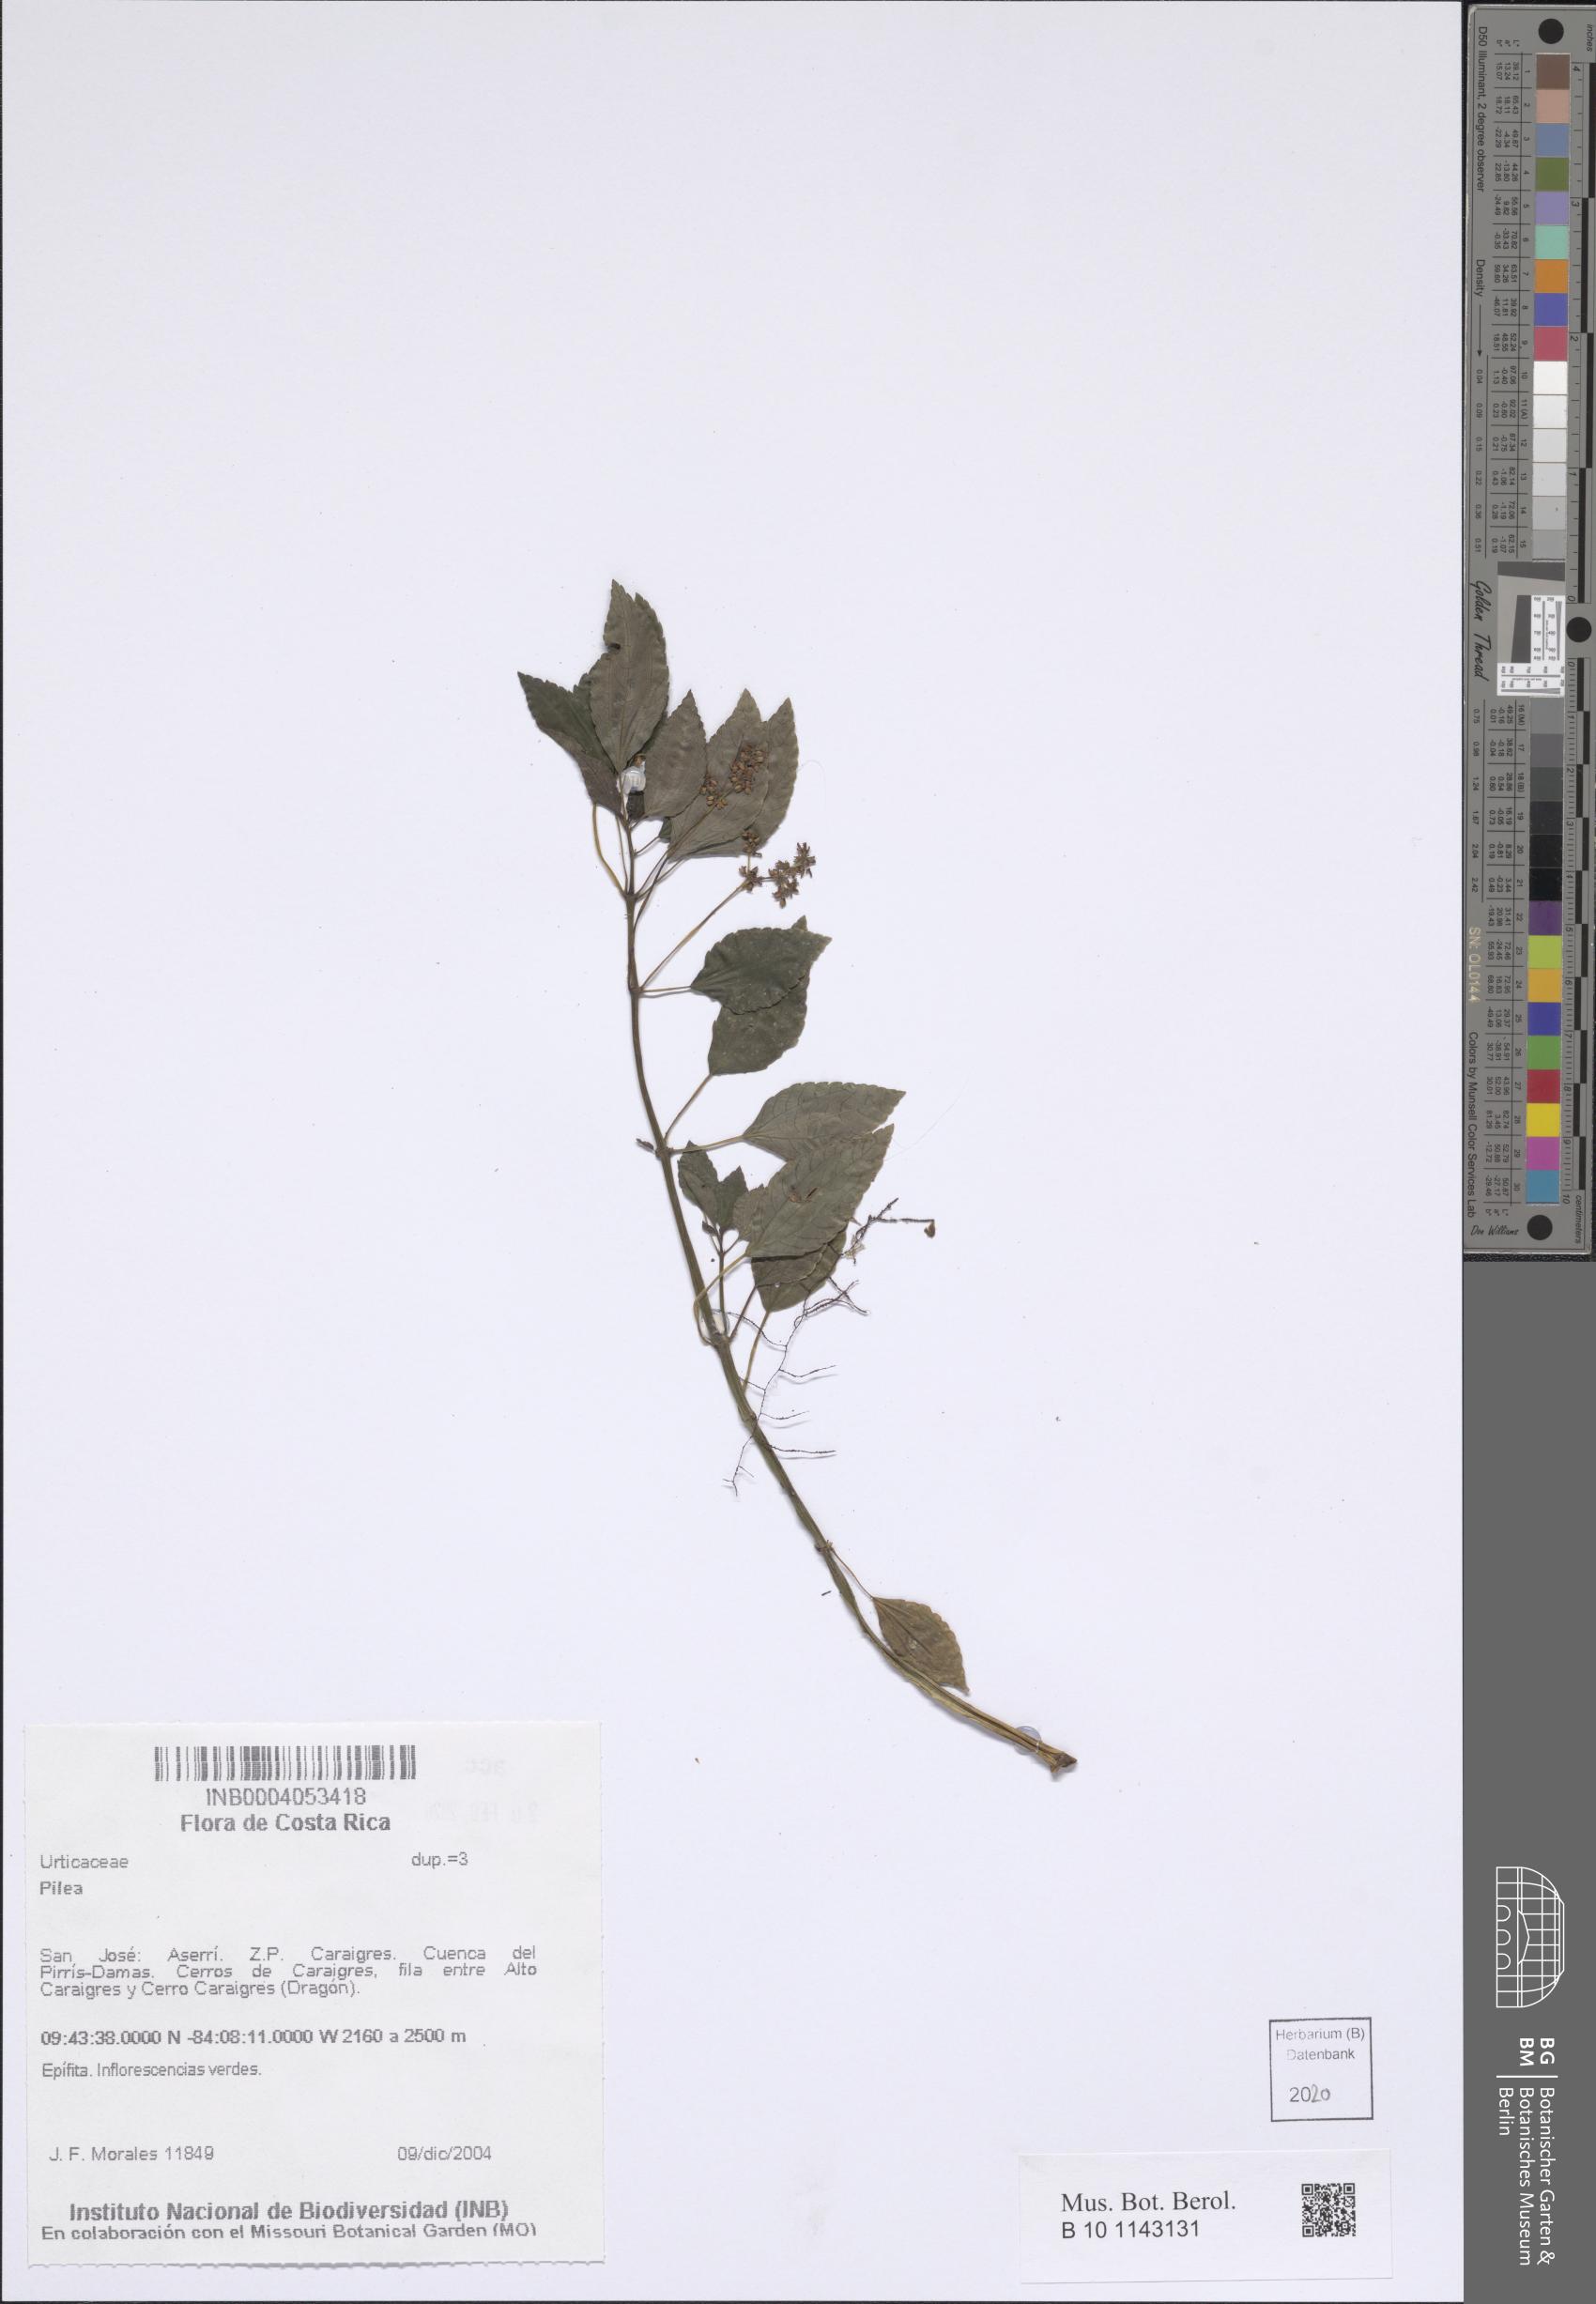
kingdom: Plantae
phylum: Tracheophyta
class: Magnoliopsida
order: Rosales
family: Urticaceae
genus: Pilea
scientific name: Pilea
